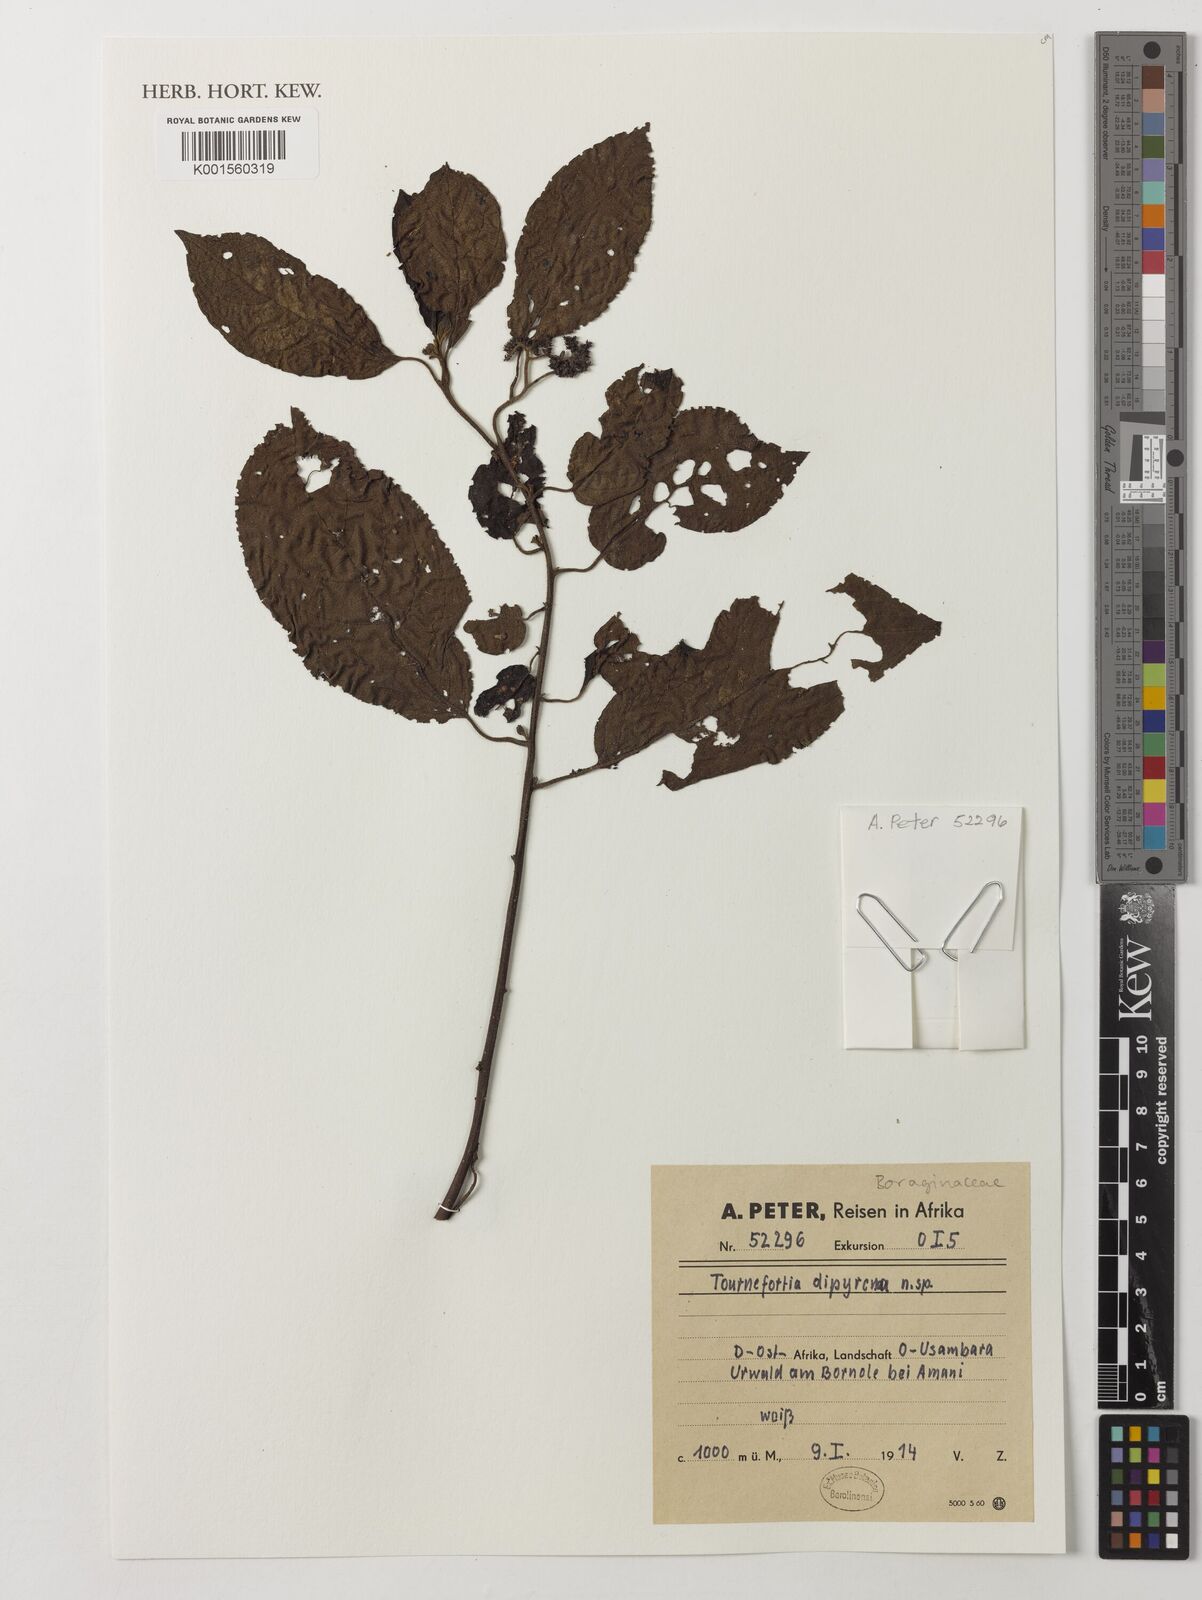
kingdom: Plantae
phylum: Tracheophyta
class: Magnoliopsida
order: Boraginales
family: Heliotropiaceae
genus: Tournefortia
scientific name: Tournefortia
